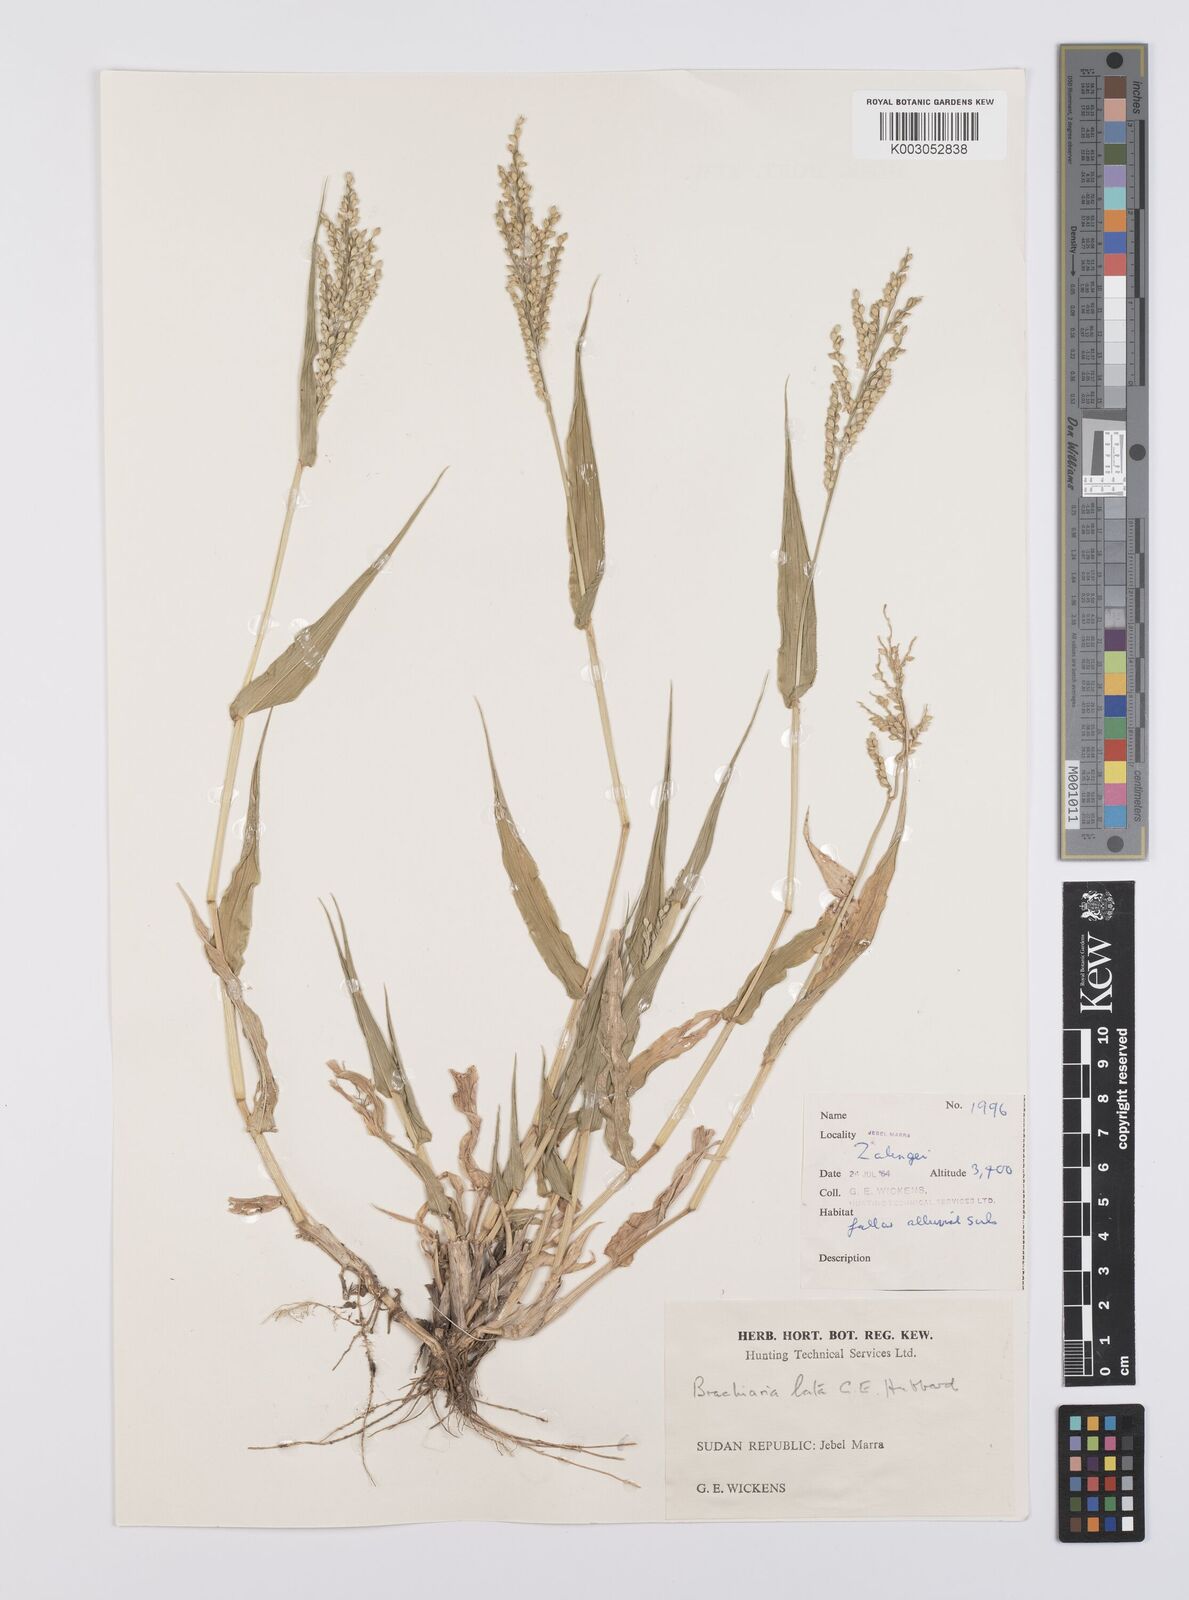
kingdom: Plantae
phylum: Tracheophyta
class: Liliopsida
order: Poales
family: Poaceae
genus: Urochloa
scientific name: Urochloa lata
